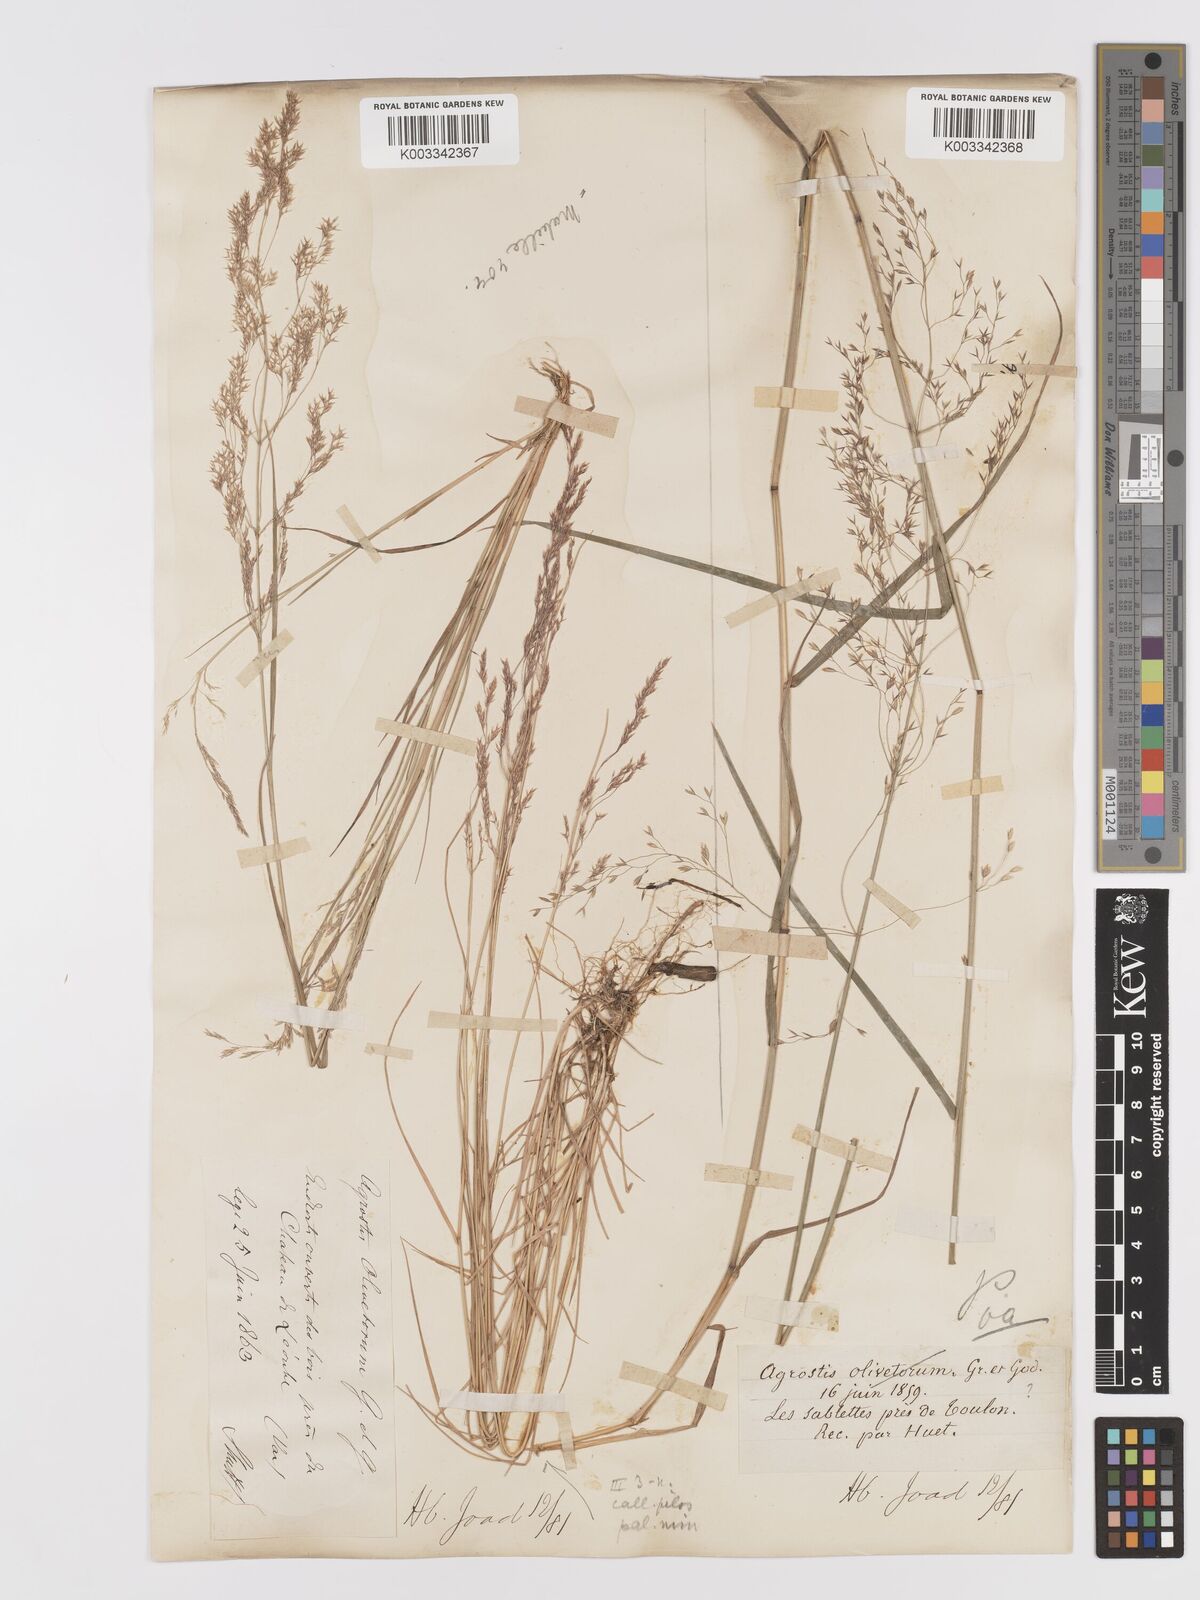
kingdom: Plantae
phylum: Tracheophyta
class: Liliopsida
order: Poales
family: Poaceae
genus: Agrostis
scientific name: Agrostis castellana
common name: Highland bent
